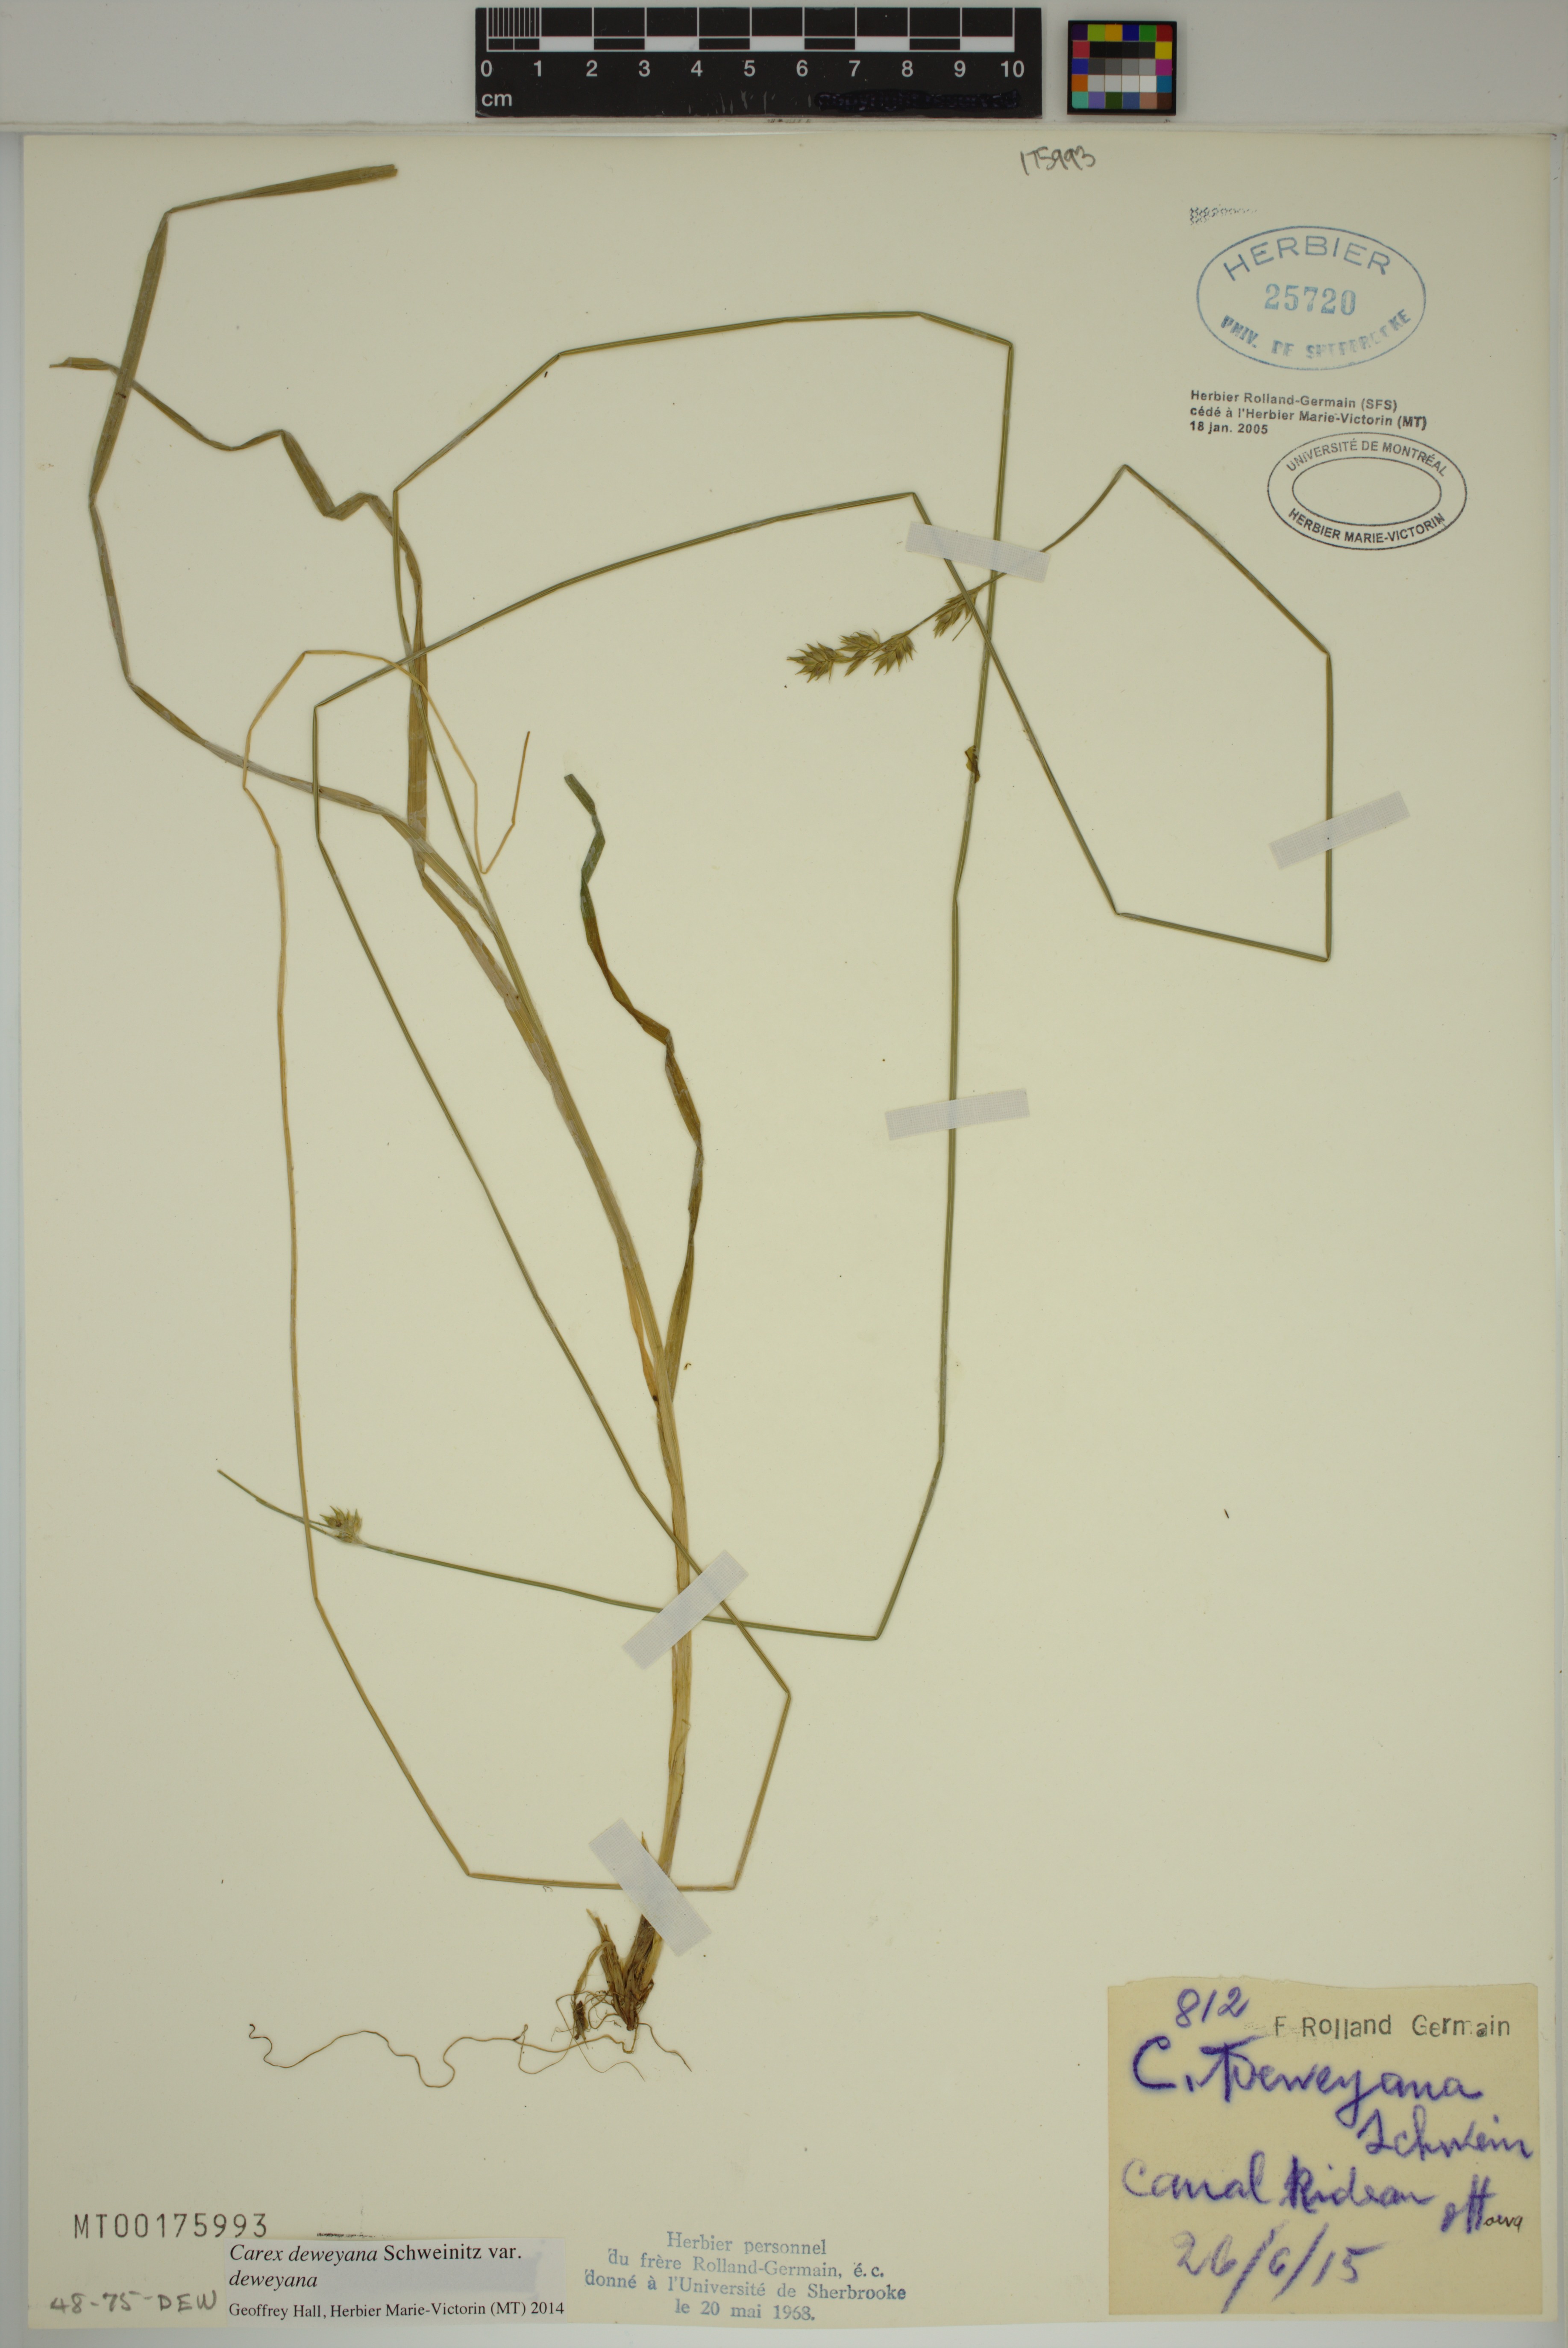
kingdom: Plantae
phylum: Tracheophyta
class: Liliopsida
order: Poales
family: Cyperaceae
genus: Carex
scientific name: Carex deweyana
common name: Dewey's sedge
